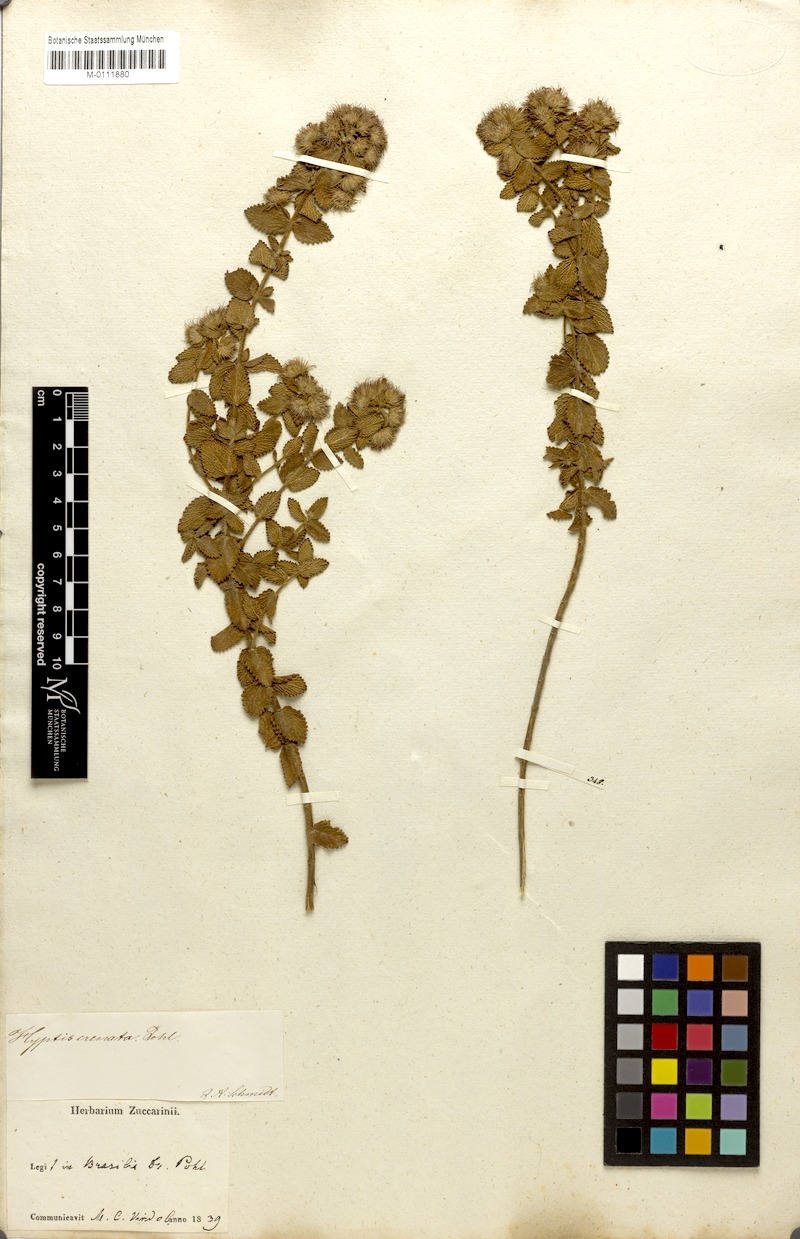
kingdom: Plantae
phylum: Tracheophyta
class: Magnoliopsida
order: Lamiales
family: Lamiaceae
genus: Hyptis
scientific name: Hyptis crenata
